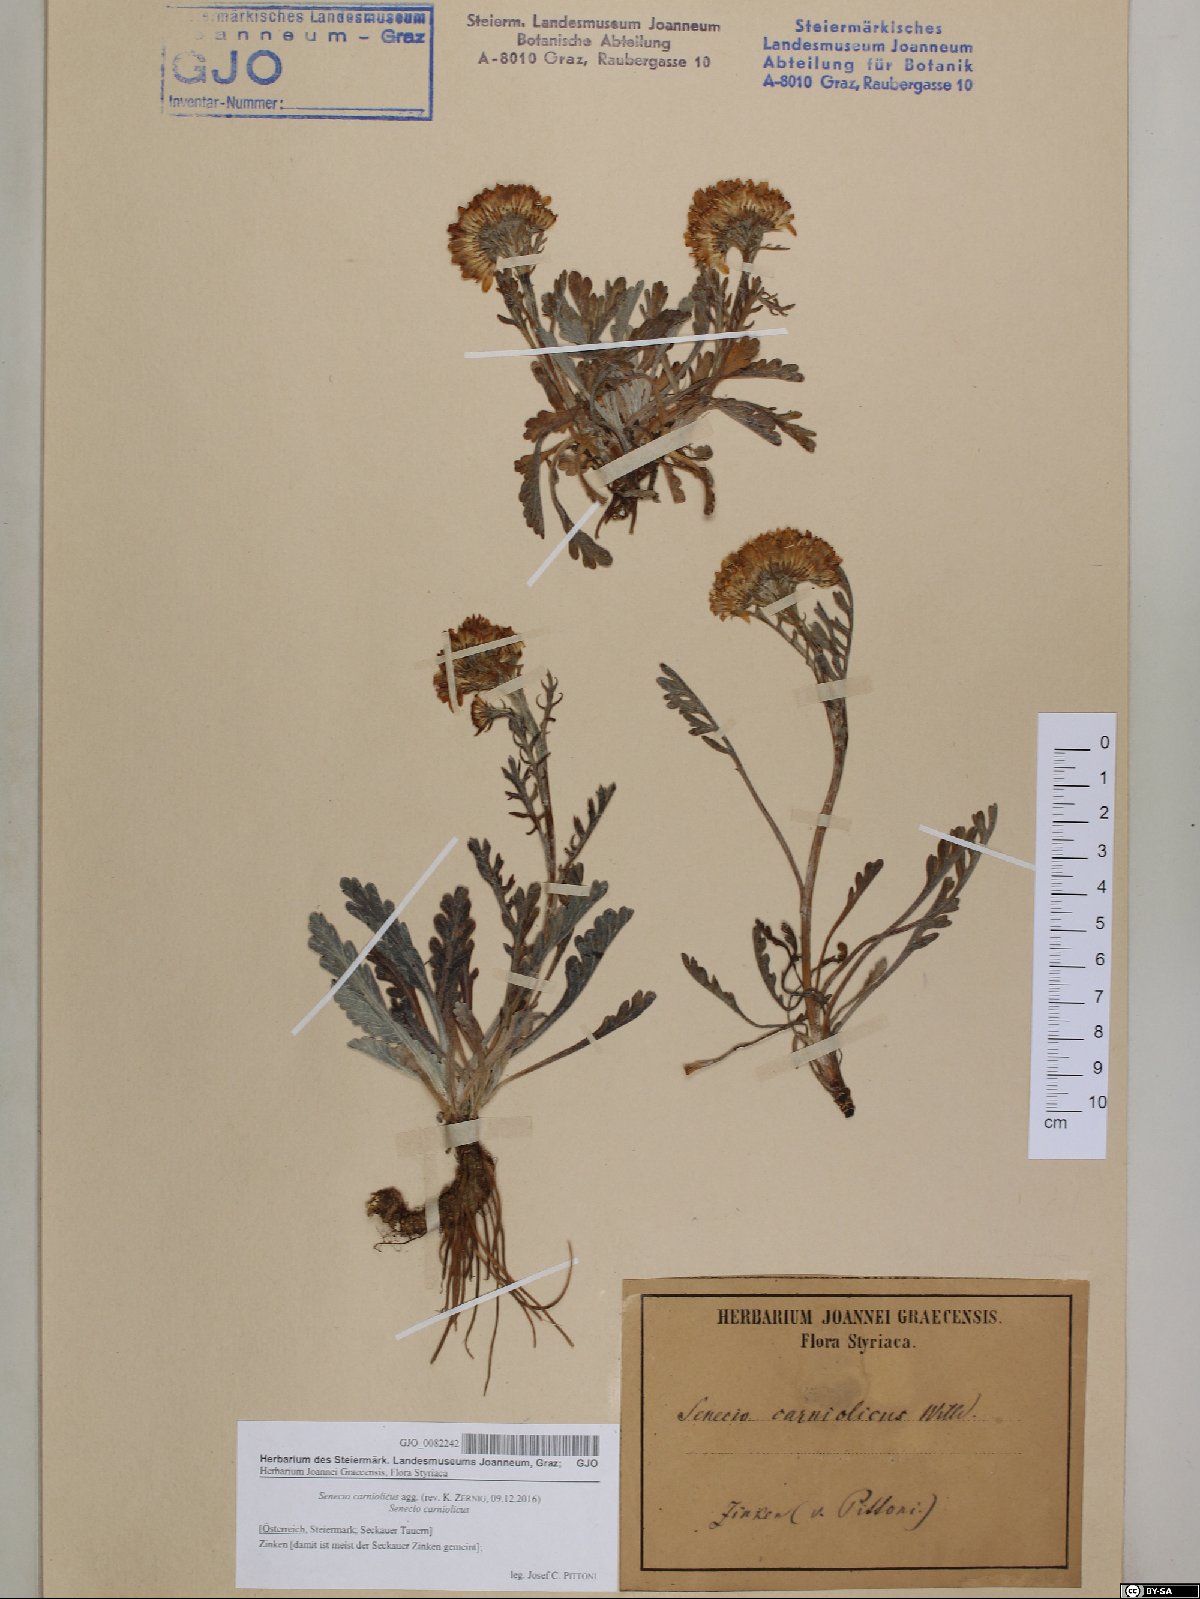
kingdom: Plantae
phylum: Tracheophyta
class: Magnoliopsida
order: Asterales
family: Asteraceae
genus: Jacobaea
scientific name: Jacobaea carniolica
